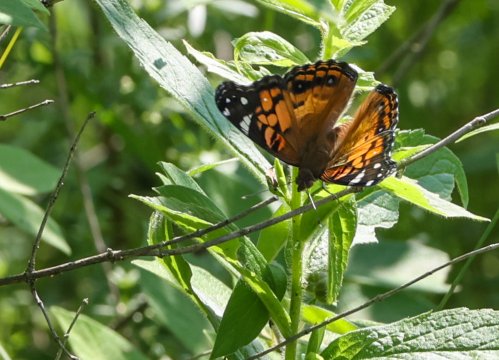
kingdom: Animalia
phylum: Arthropoda
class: Insecta
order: Lepidoptera
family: Nymphalidae
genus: Vanessa
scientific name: Vanessa virginiensis
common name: American Lady
